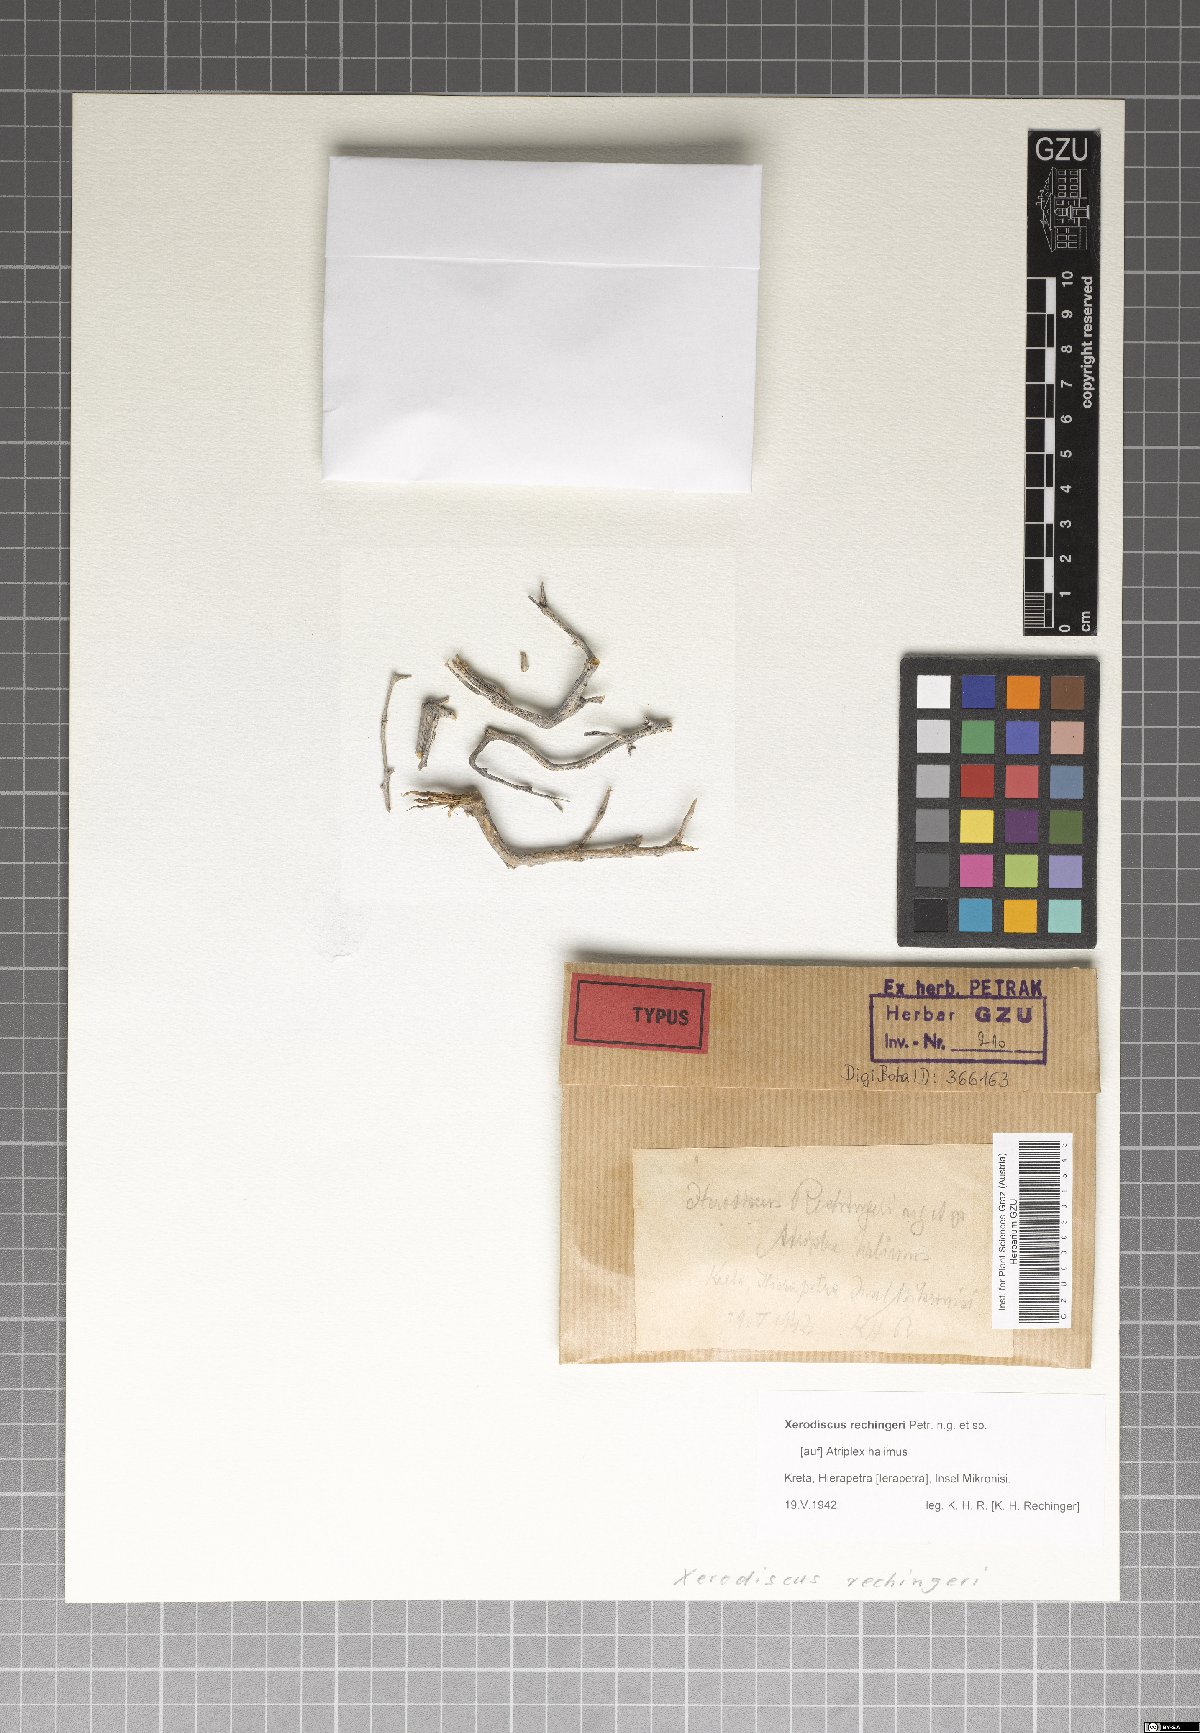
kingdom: Fungi
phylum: Ascomycota
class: Arthoniomycetes
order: Arthoniales
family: Arthoniaceae
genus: Arthonia
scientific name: Arthonia
